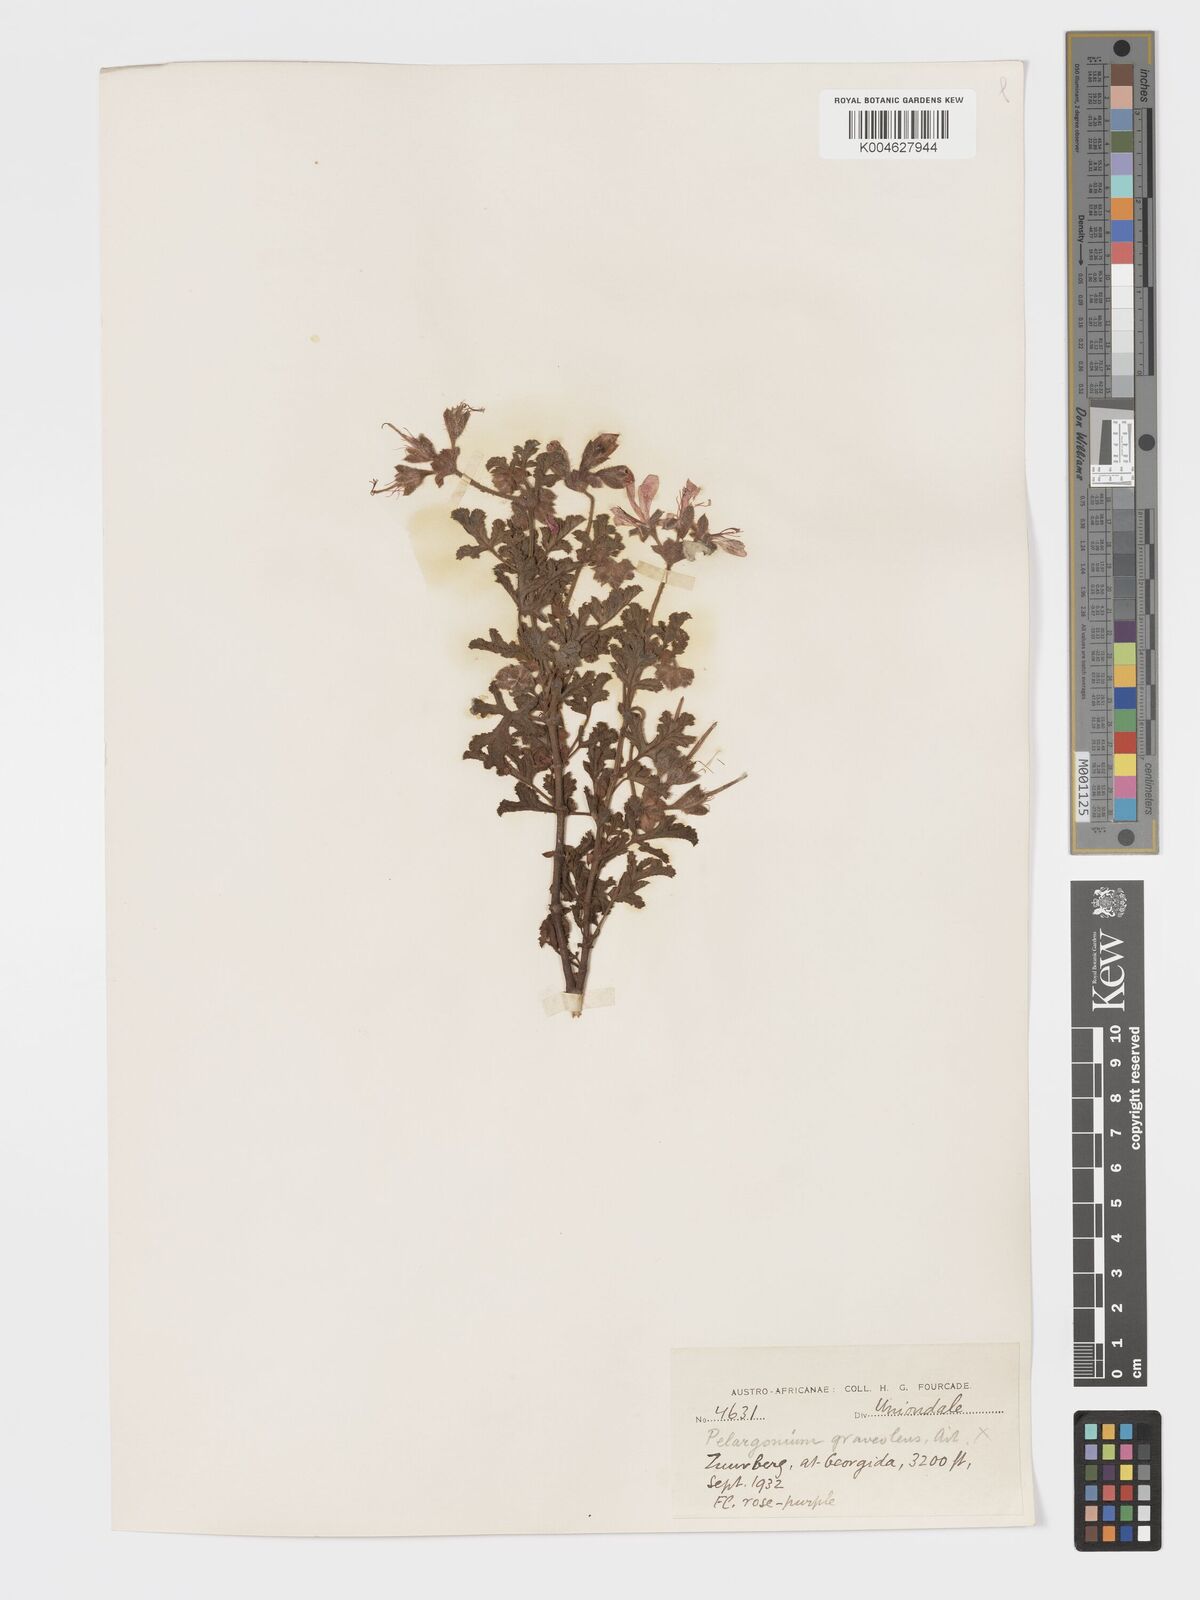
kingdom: Plantae
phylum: Tracheophyta
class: Magnoliopsida
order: Geraniales
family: Geraniaceae
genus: Pelargonium
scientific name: Pelargonium quercifolium
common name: Oakleaf geranium
